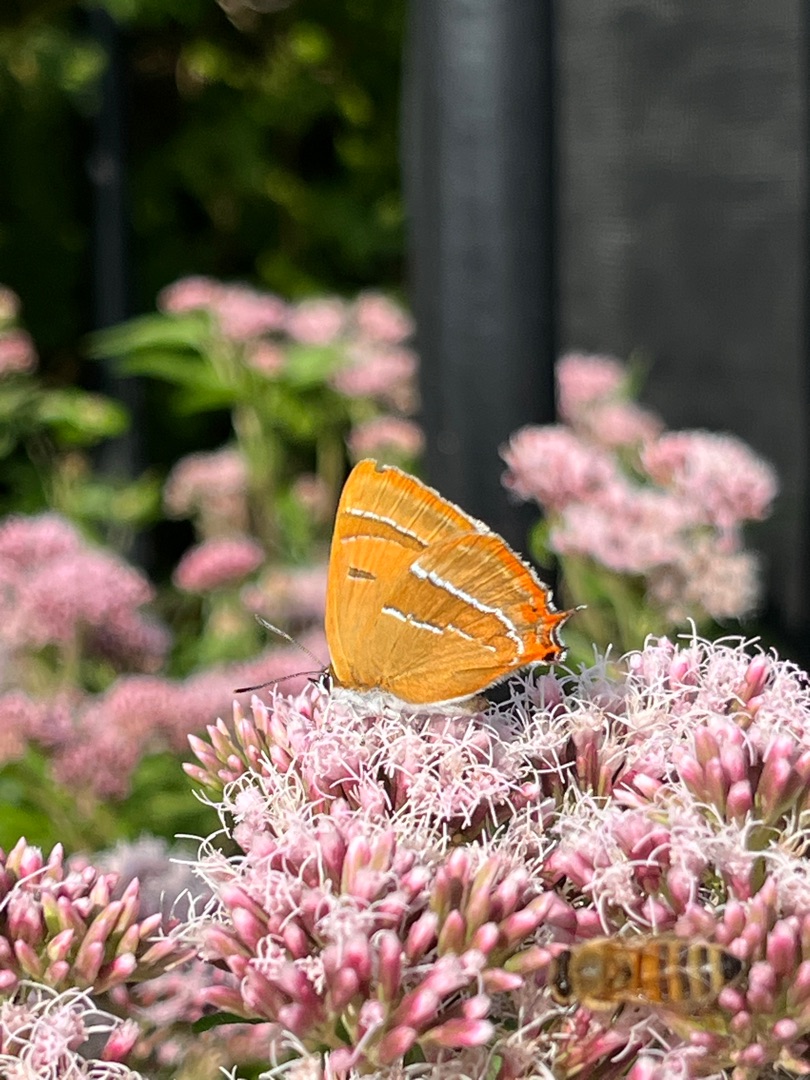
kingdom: Animalia
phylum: Arthropoda
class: Insecta
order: Lepidoptera
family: Lycaenidae
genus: Thecla
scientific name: Thecla betulae
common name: Guldhale
